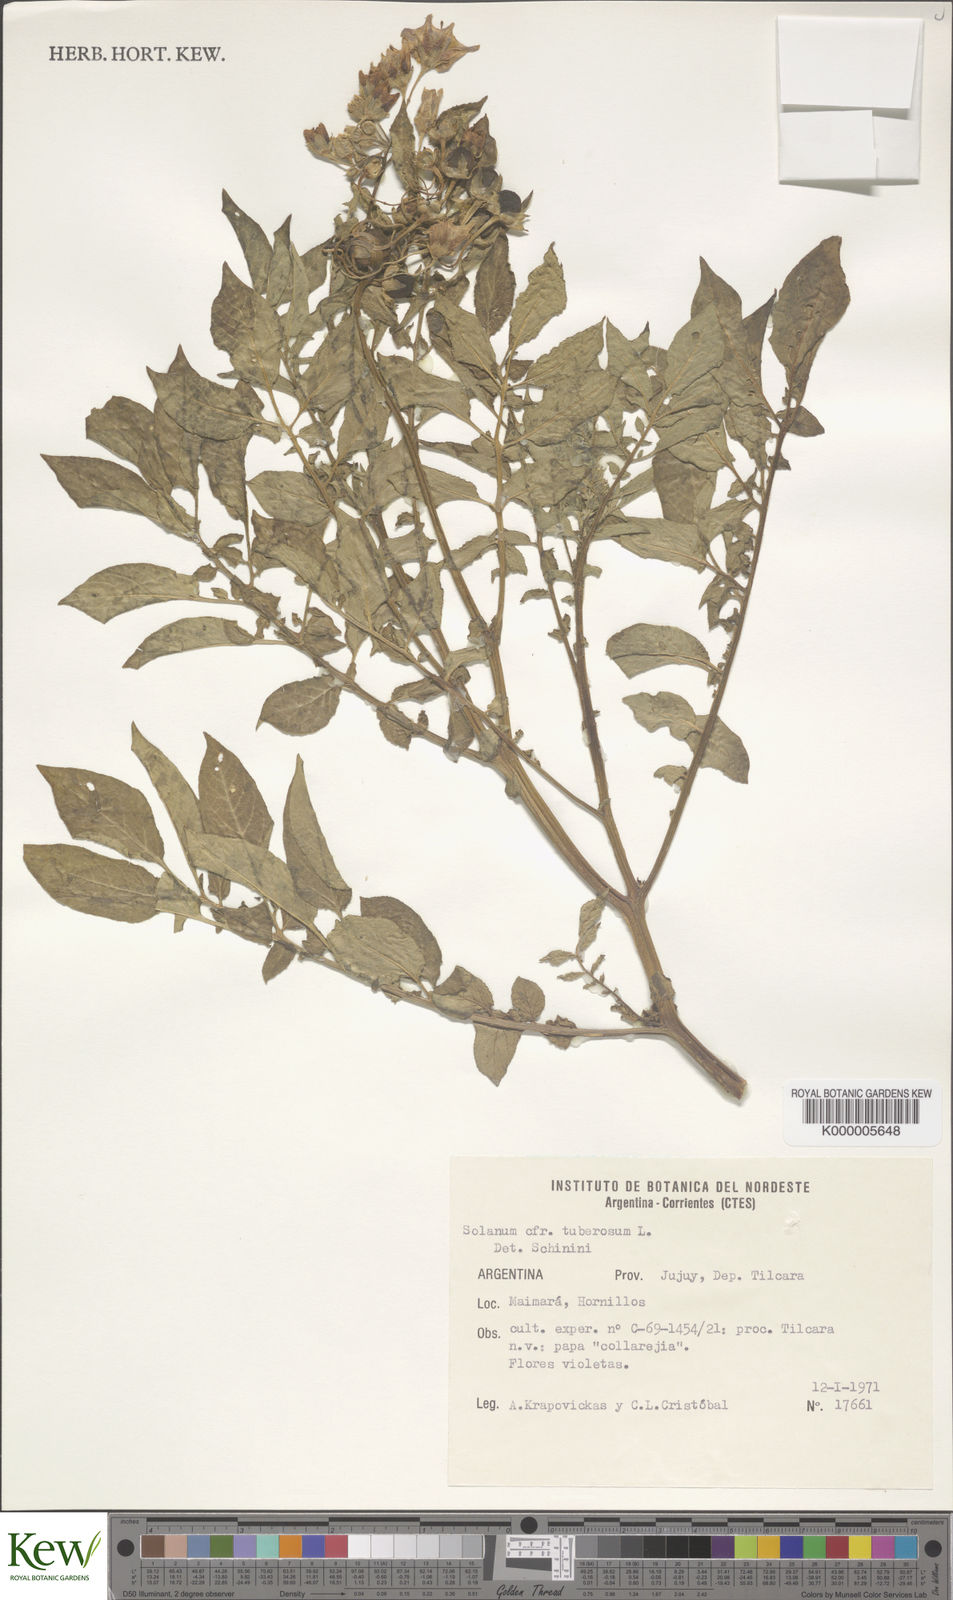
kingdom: Plantae
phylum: Tracheophyta
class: Magnoliopsida
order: Solanales
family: Solanaceae
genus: Solanum
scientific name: Solanum tuberosum
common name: Potato
